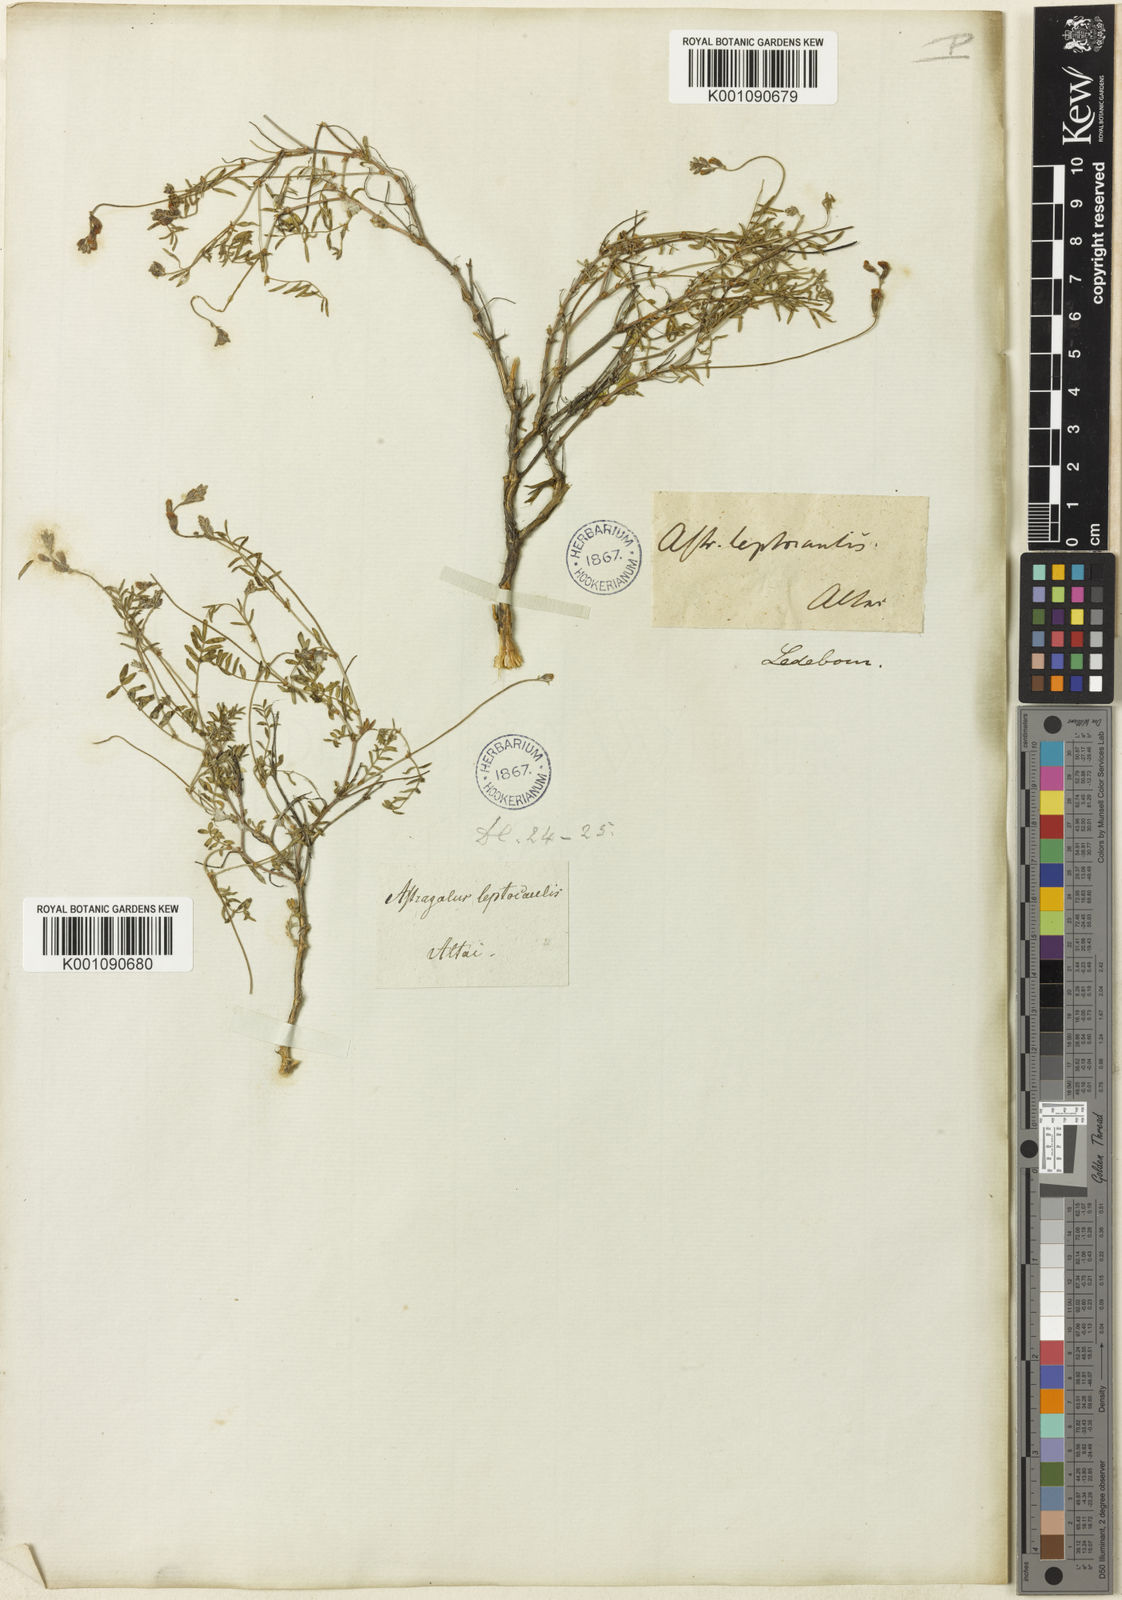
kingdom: Plantae
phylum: Tracheophyta
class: Magnoliopsida
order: Fabales
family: Fabaceae
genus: Astragalus
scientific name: Astragalus
